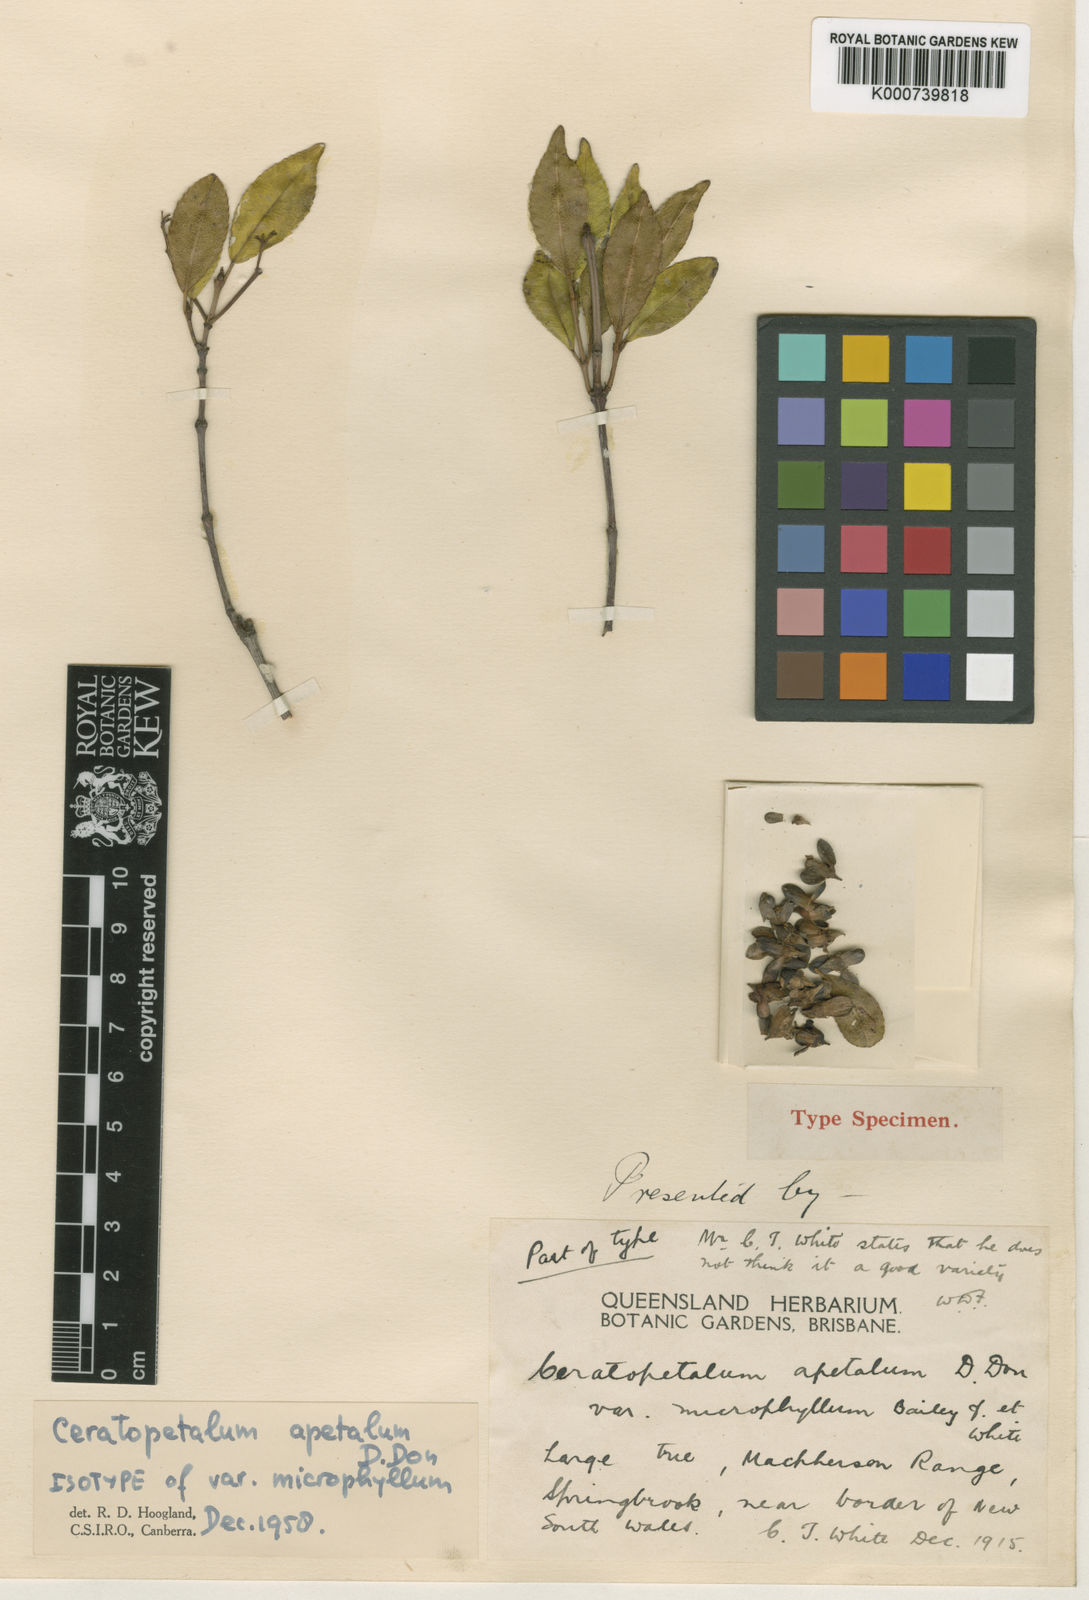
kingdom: Plantae
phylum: Tracheophyta
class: Magnoliopsida
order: Oxalidales
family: Cunoniaceae
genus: Ceratopetalum
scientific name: Ceratopetalum apetalum
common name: Scented satinwood
